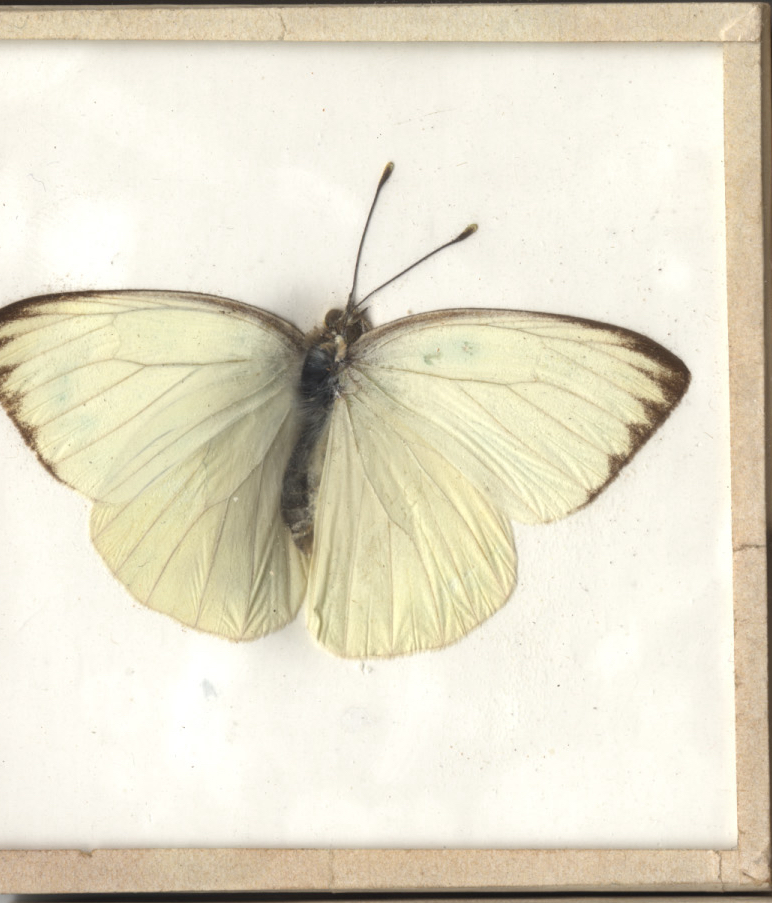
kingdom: Animalia
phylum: Arthropoda
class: Insecta
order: Lepidoptera
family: Pieridae
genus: Ascia
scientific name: Ascia monuste
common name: Great Southern White
